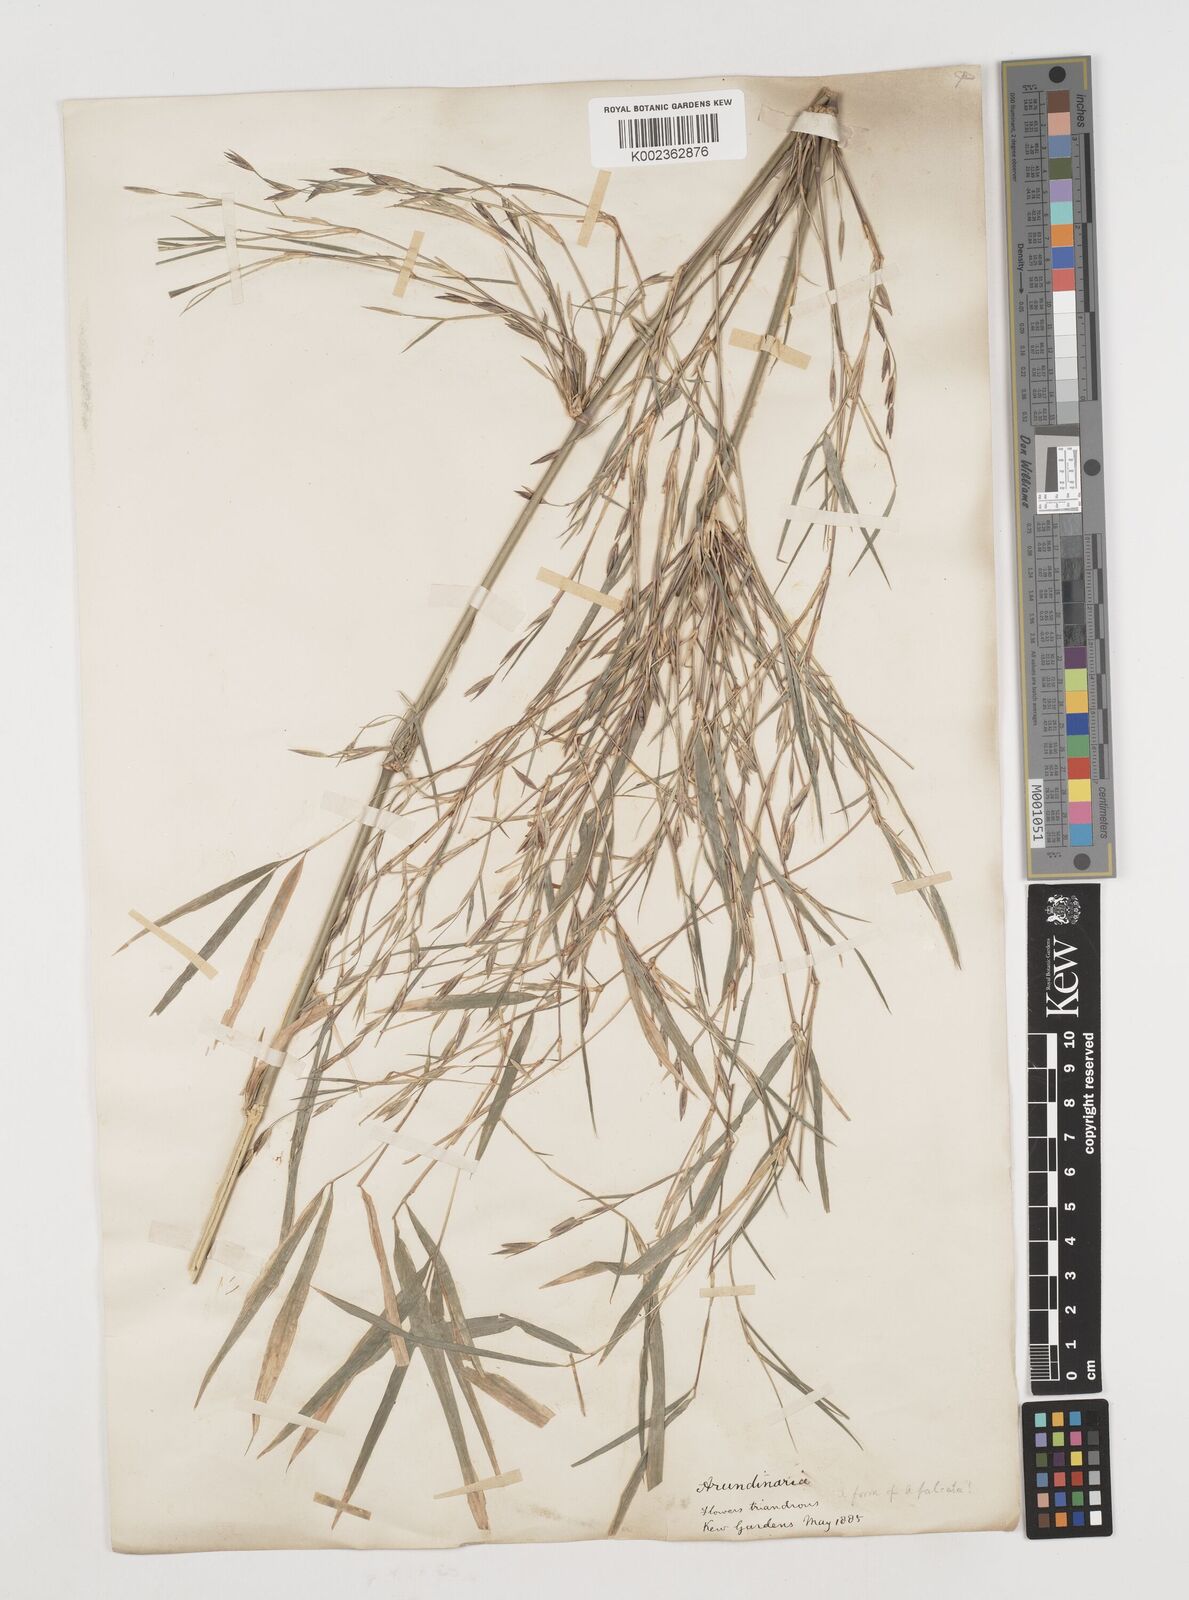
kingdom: Plantae
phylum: Tracheophyta
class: Liliopsida
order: Poales
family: Poaceae
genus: Himalayacalamus
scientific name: Himalayacalamus hookerianus
